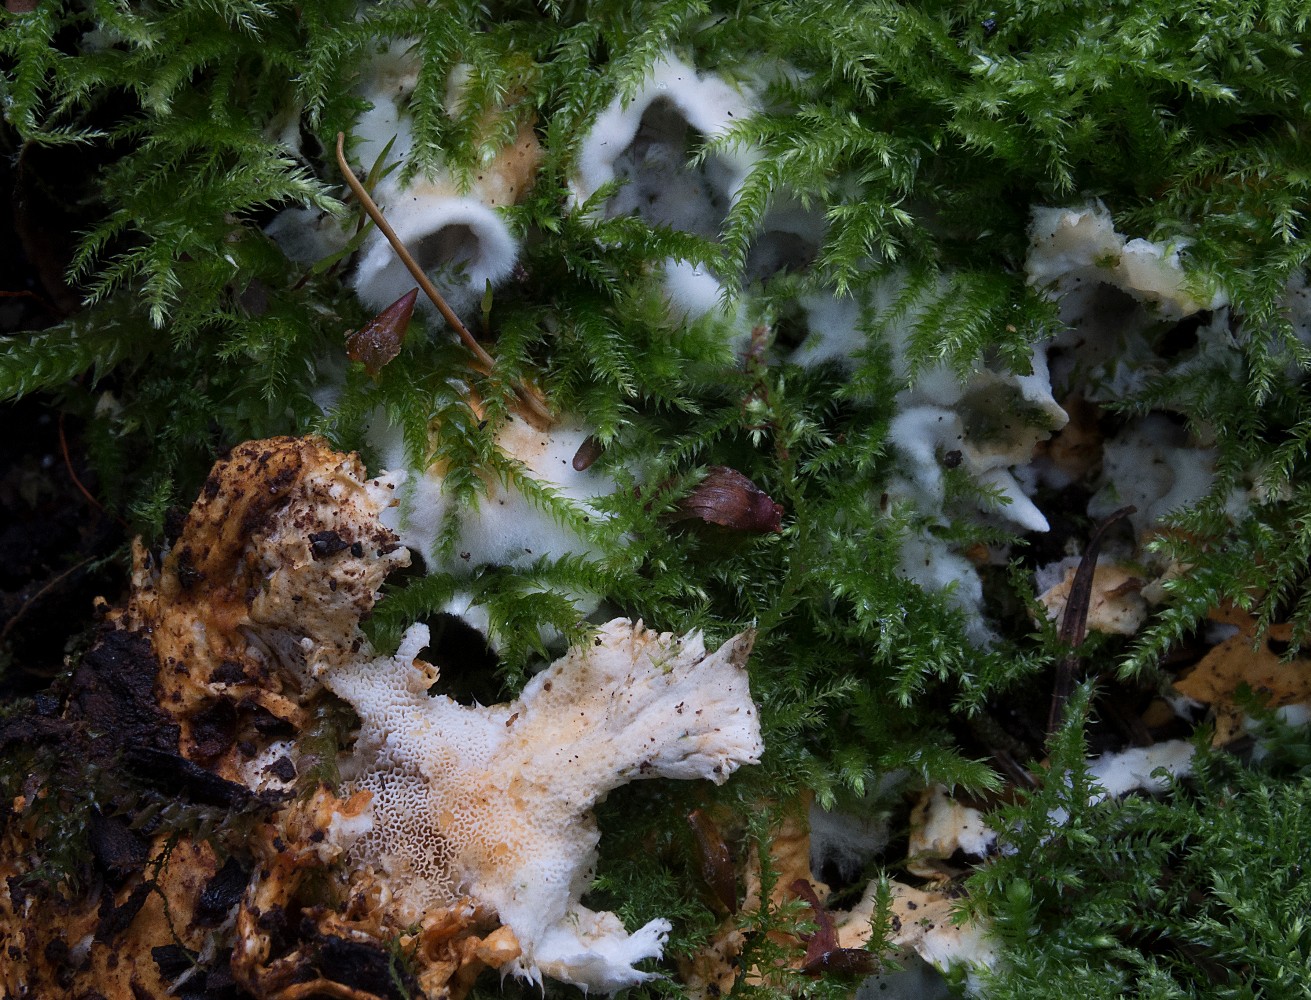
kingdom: Fungi
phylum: Basidiomycota
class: Agaricomycetes
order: Polyporales
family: Steccherinaceae
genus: Loweomyces
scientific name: Loweomyces wynneae
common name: krybende blødporesvamp
